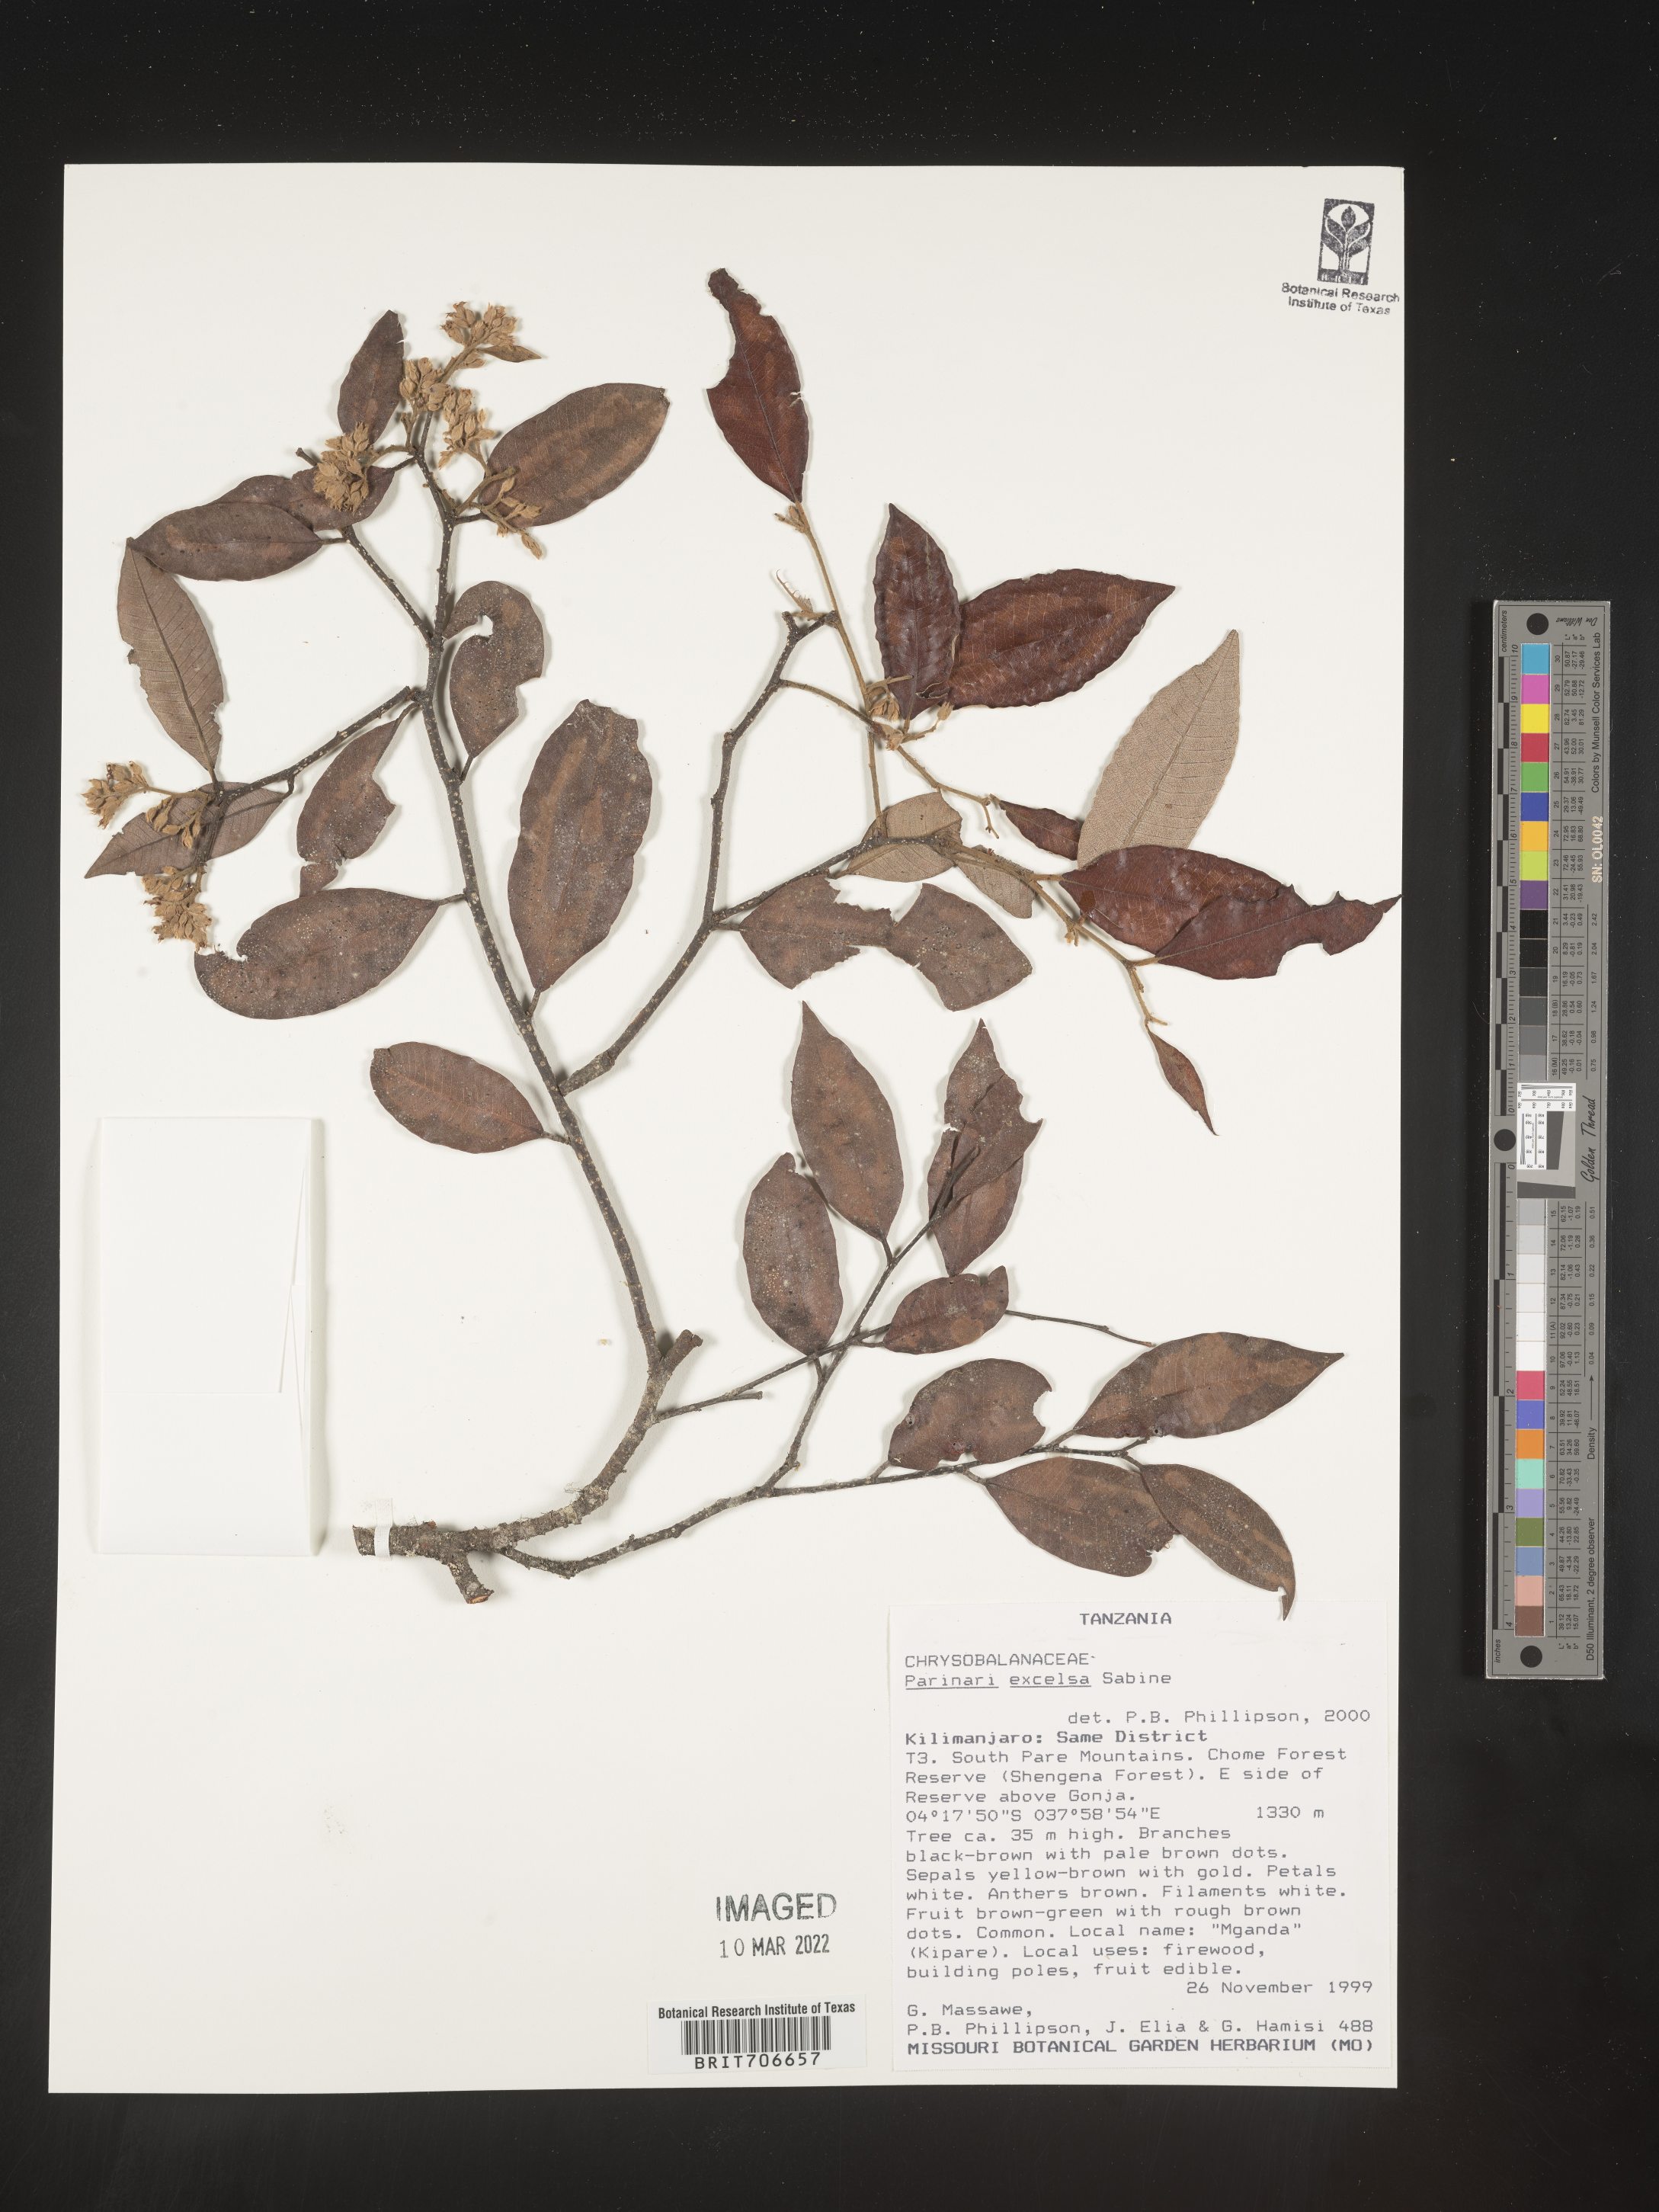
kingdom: Plantae
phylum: Tracheophyta
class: Magnoliopsida
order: Malpighiales
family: Chrysobalanaceae
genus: Parinari
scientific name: Parinari
